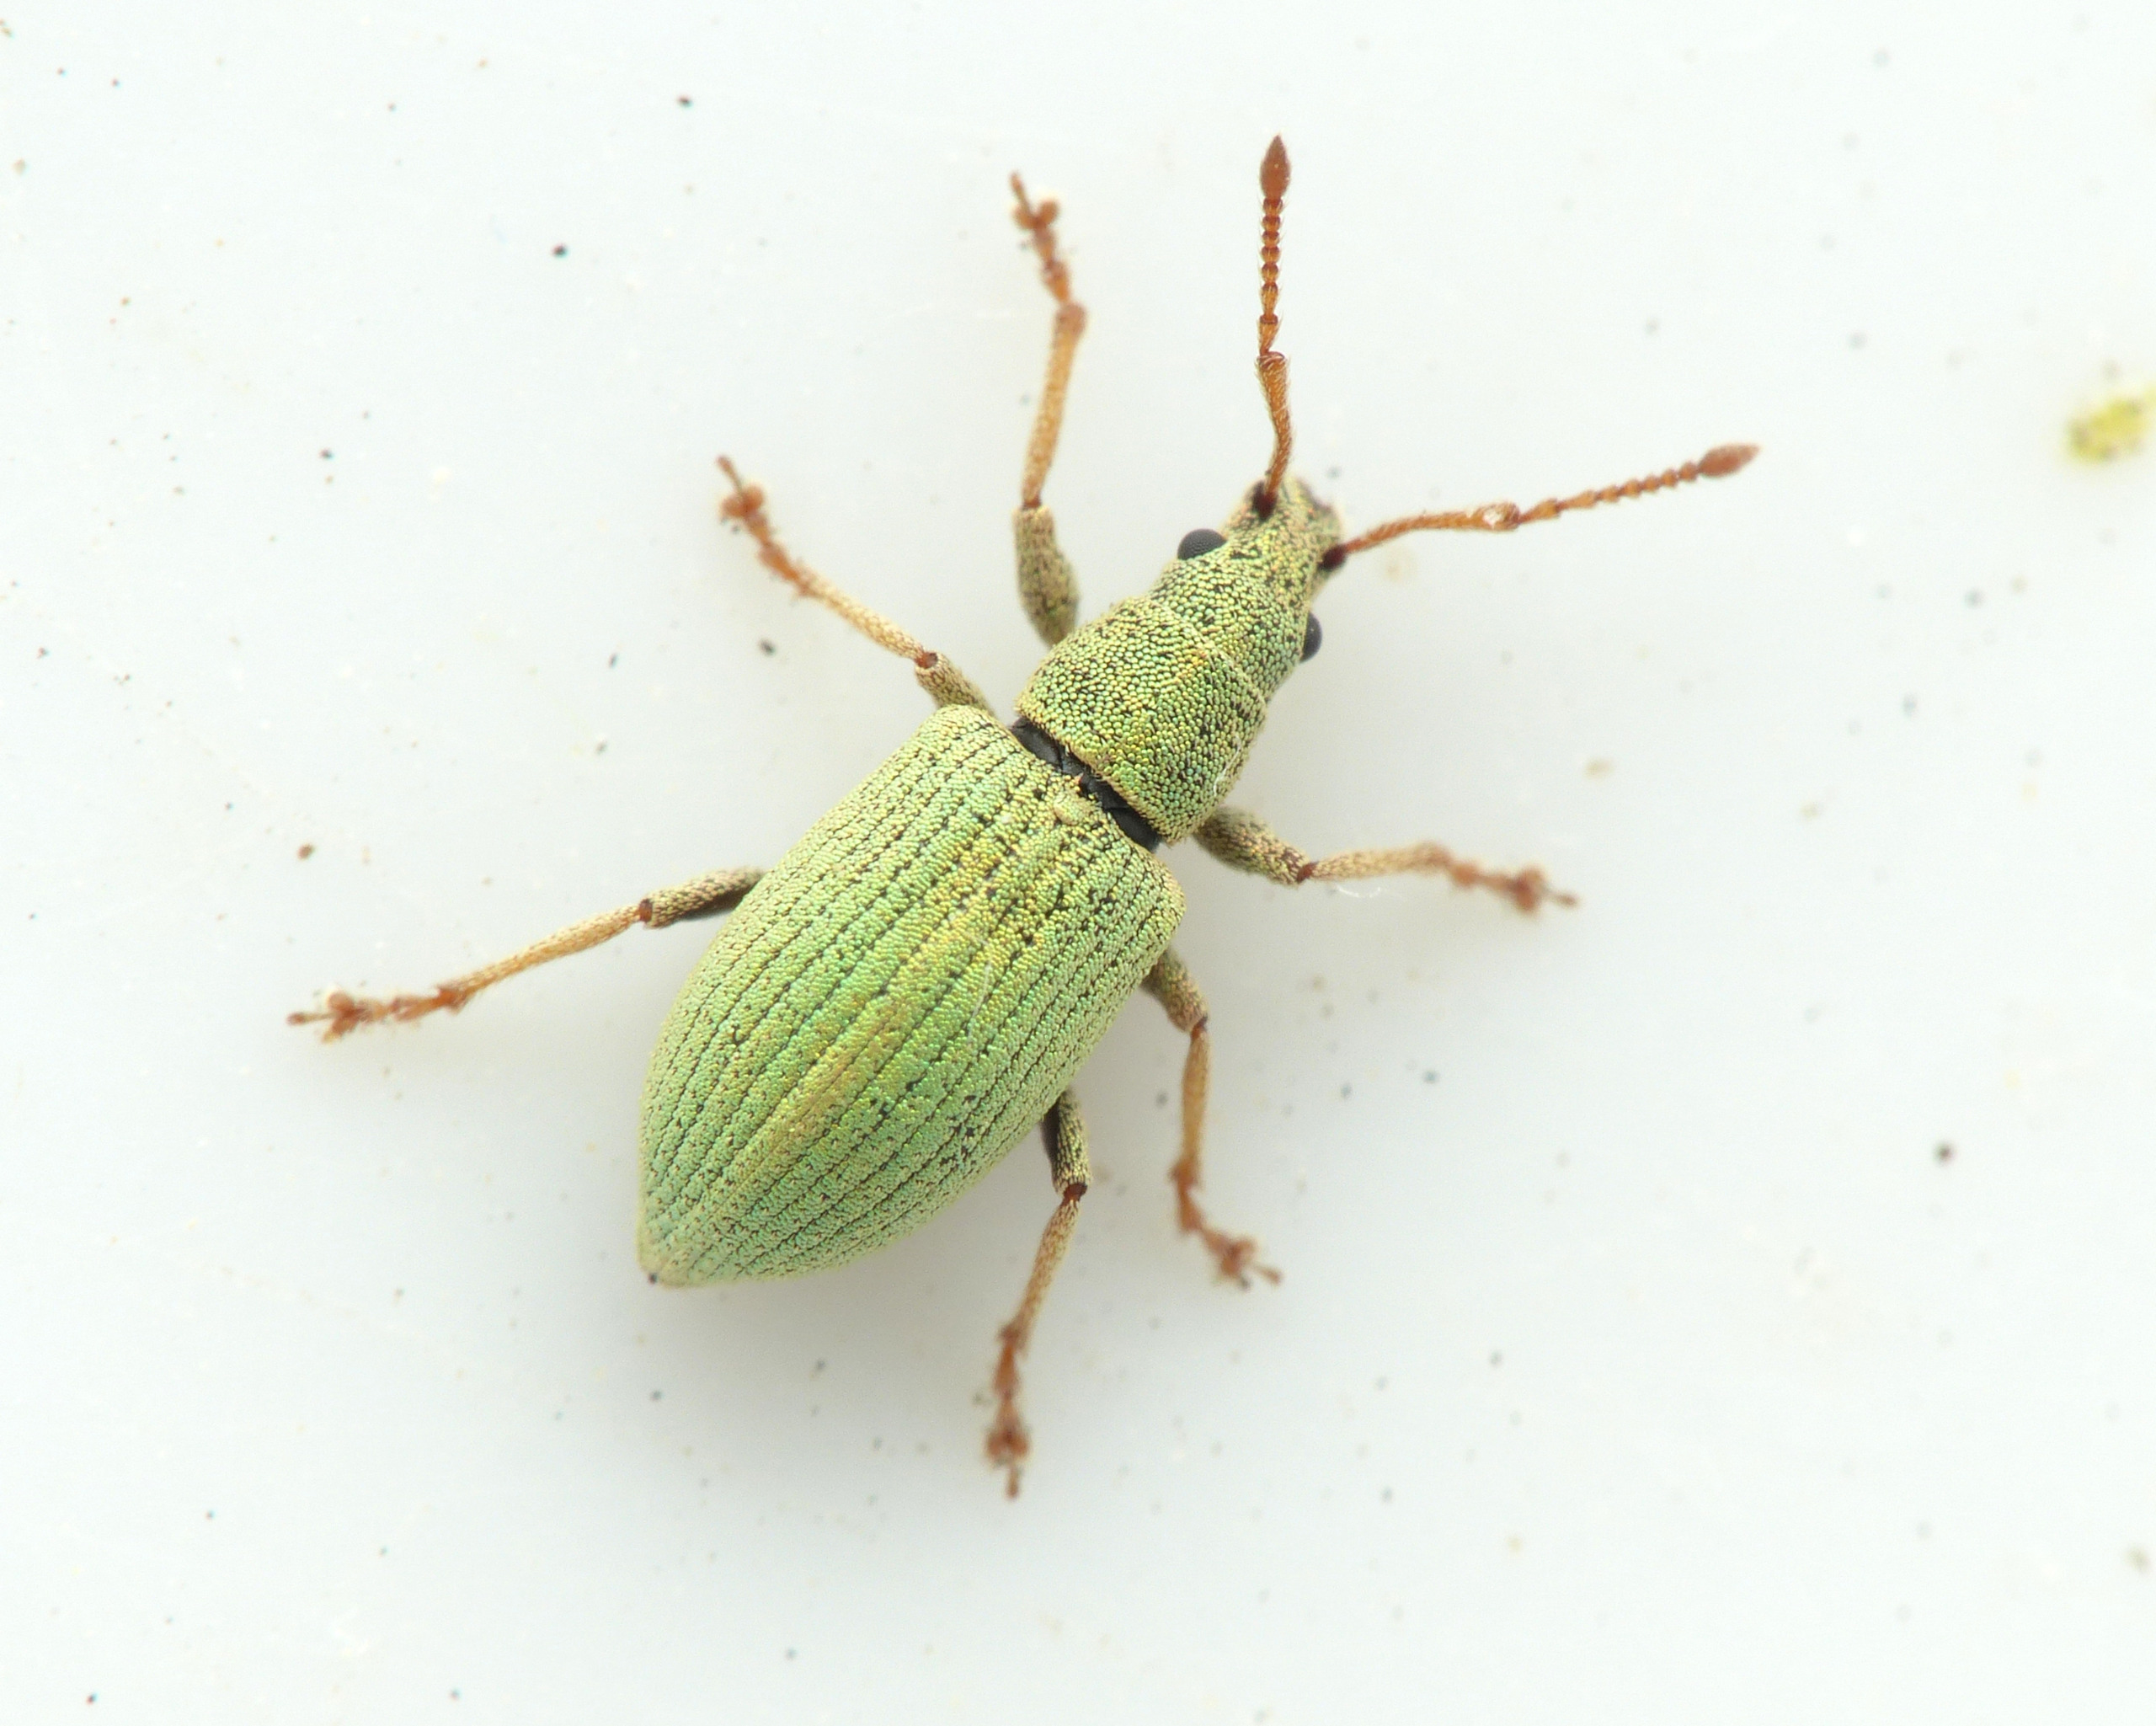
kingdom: Animalia
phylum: Arthropoda
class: Insecta
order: Coleoptera
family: Curculionidae
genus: Phyllobius
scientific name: Phyllobius virideaeris
